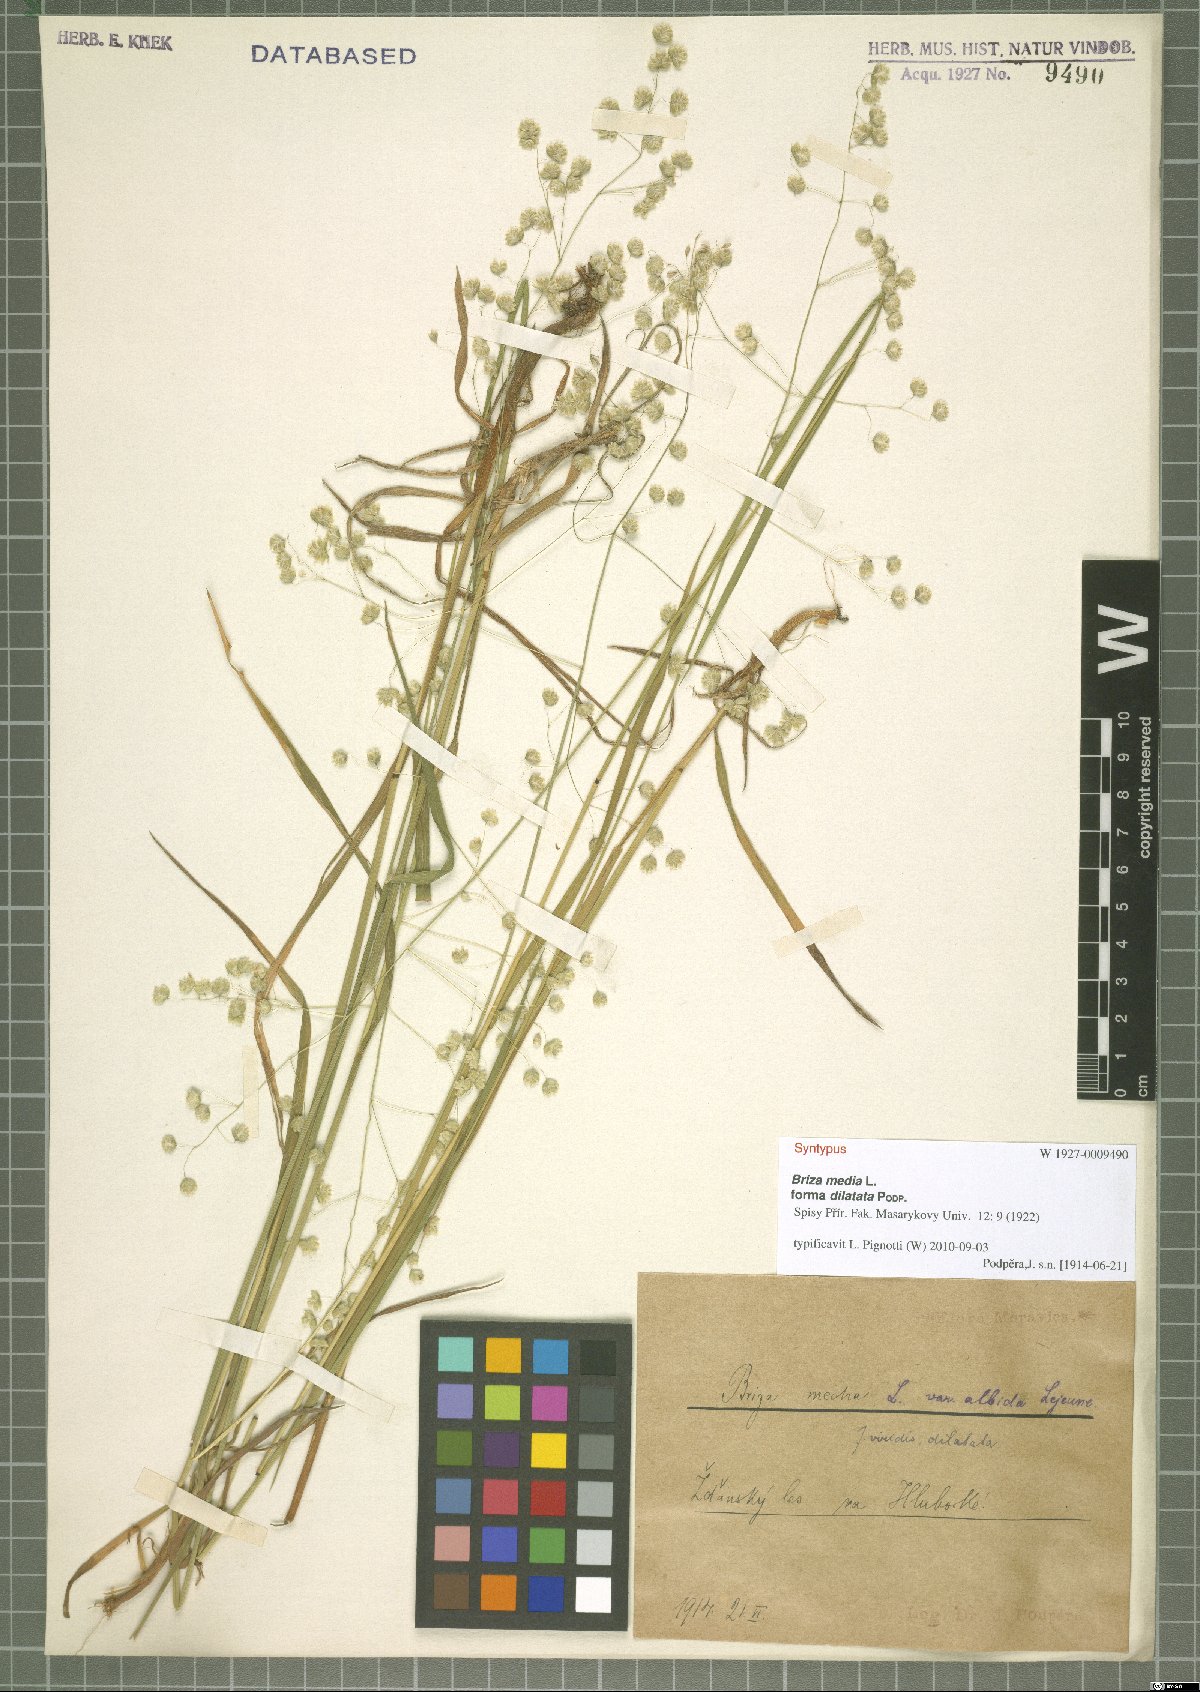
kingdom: Plantae
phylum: Tracheophyta
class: Liliopsida
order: Poales
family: Poaceae
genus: Briza
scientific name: Briza media
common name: Quaking grass
